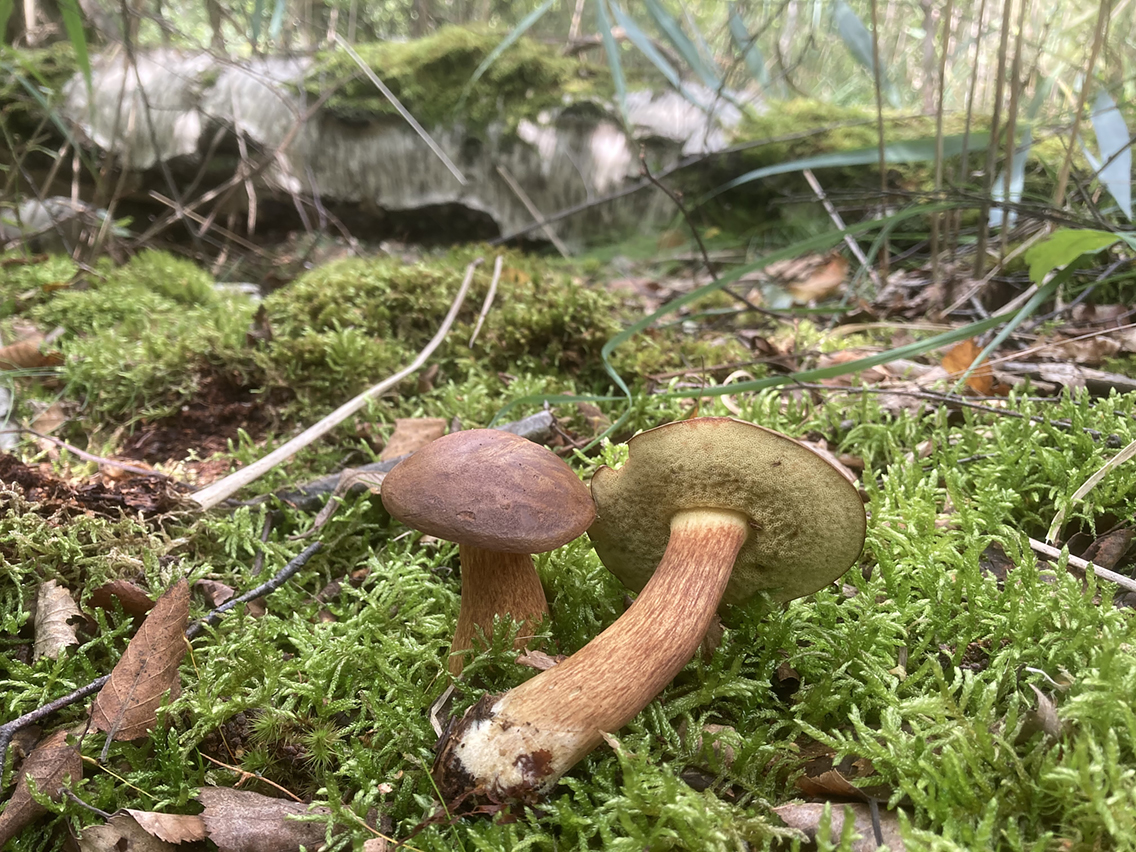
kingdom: Fungi
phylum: Basidiomycota
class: Agaricomycetes
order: Boletales
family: Boletaceae
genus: Imleria
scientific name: Imleria badia
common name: brunstokket rørhat
